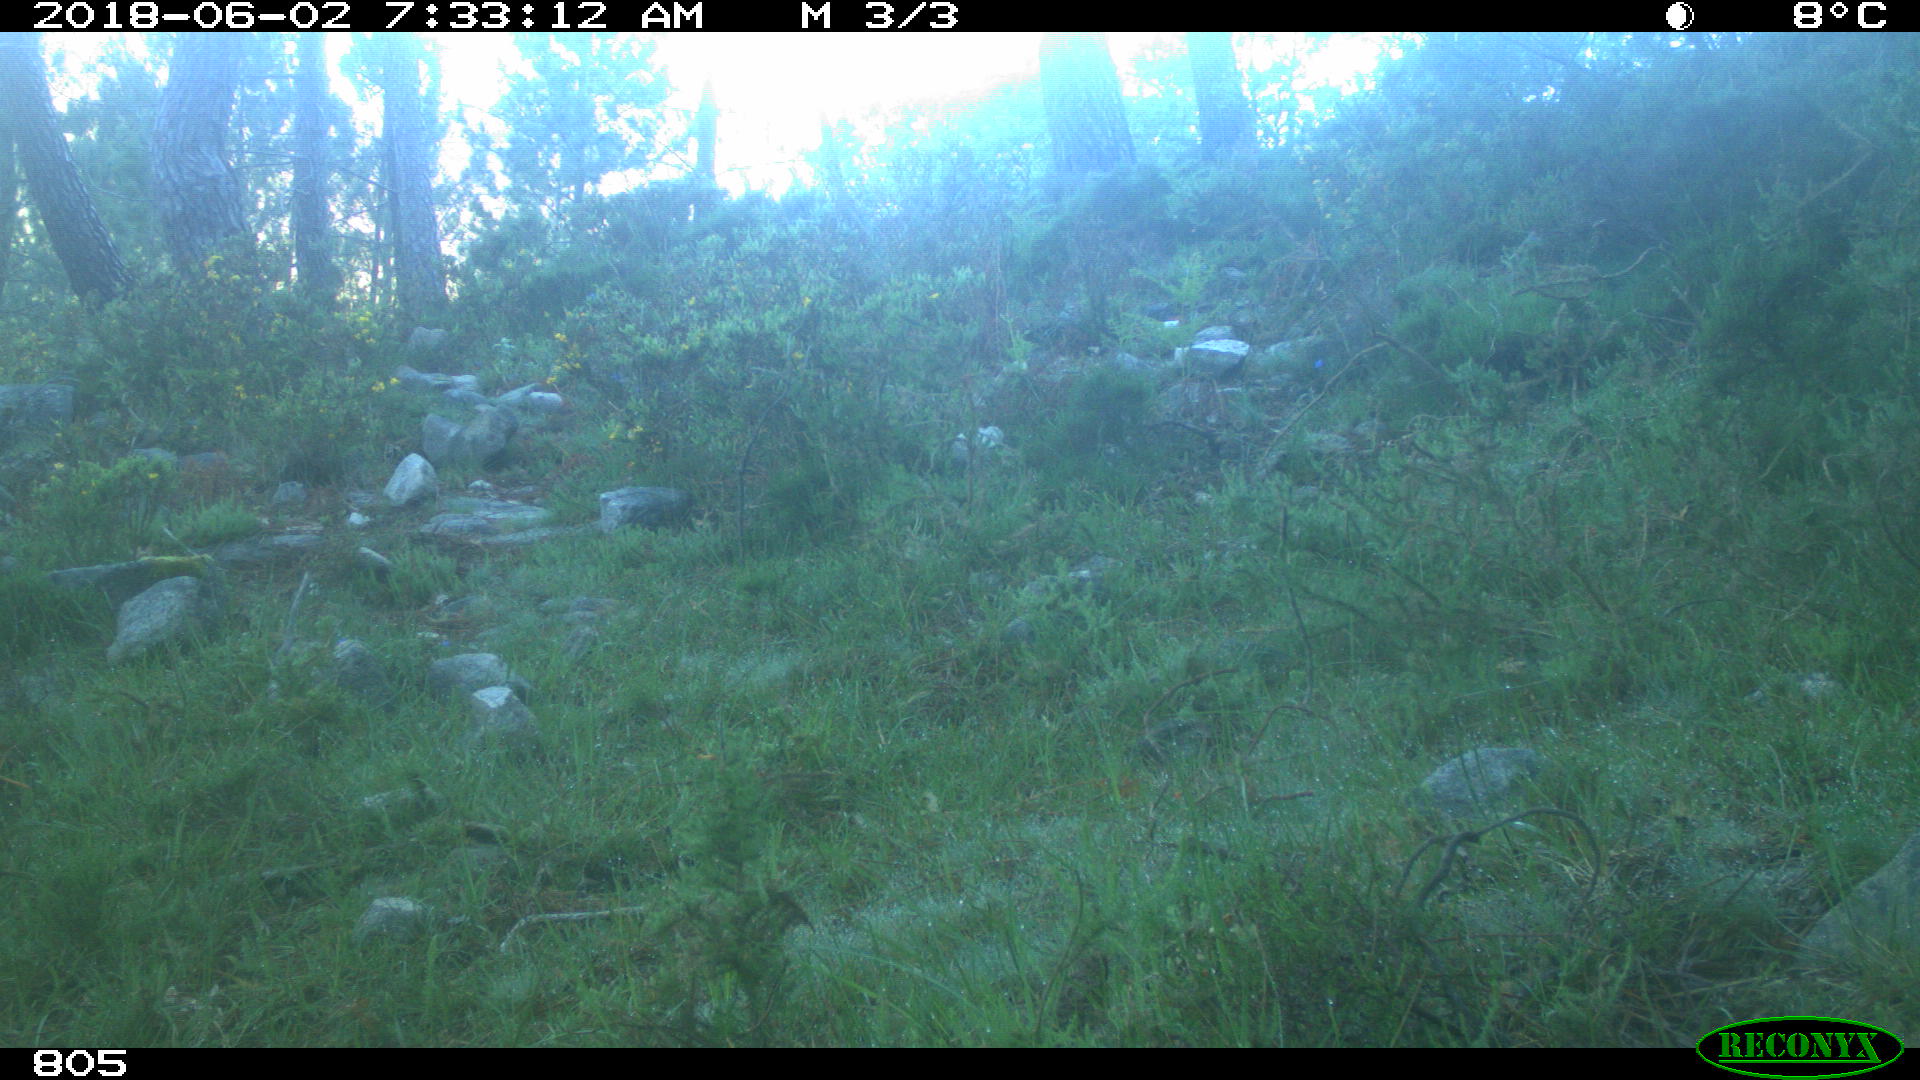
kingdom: Animalia
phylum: Chordata
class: Mammalia
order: Artiodactyla
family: Cervidae
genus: Capreolus
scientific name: Capreolus capreolus
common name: Western roe deer
